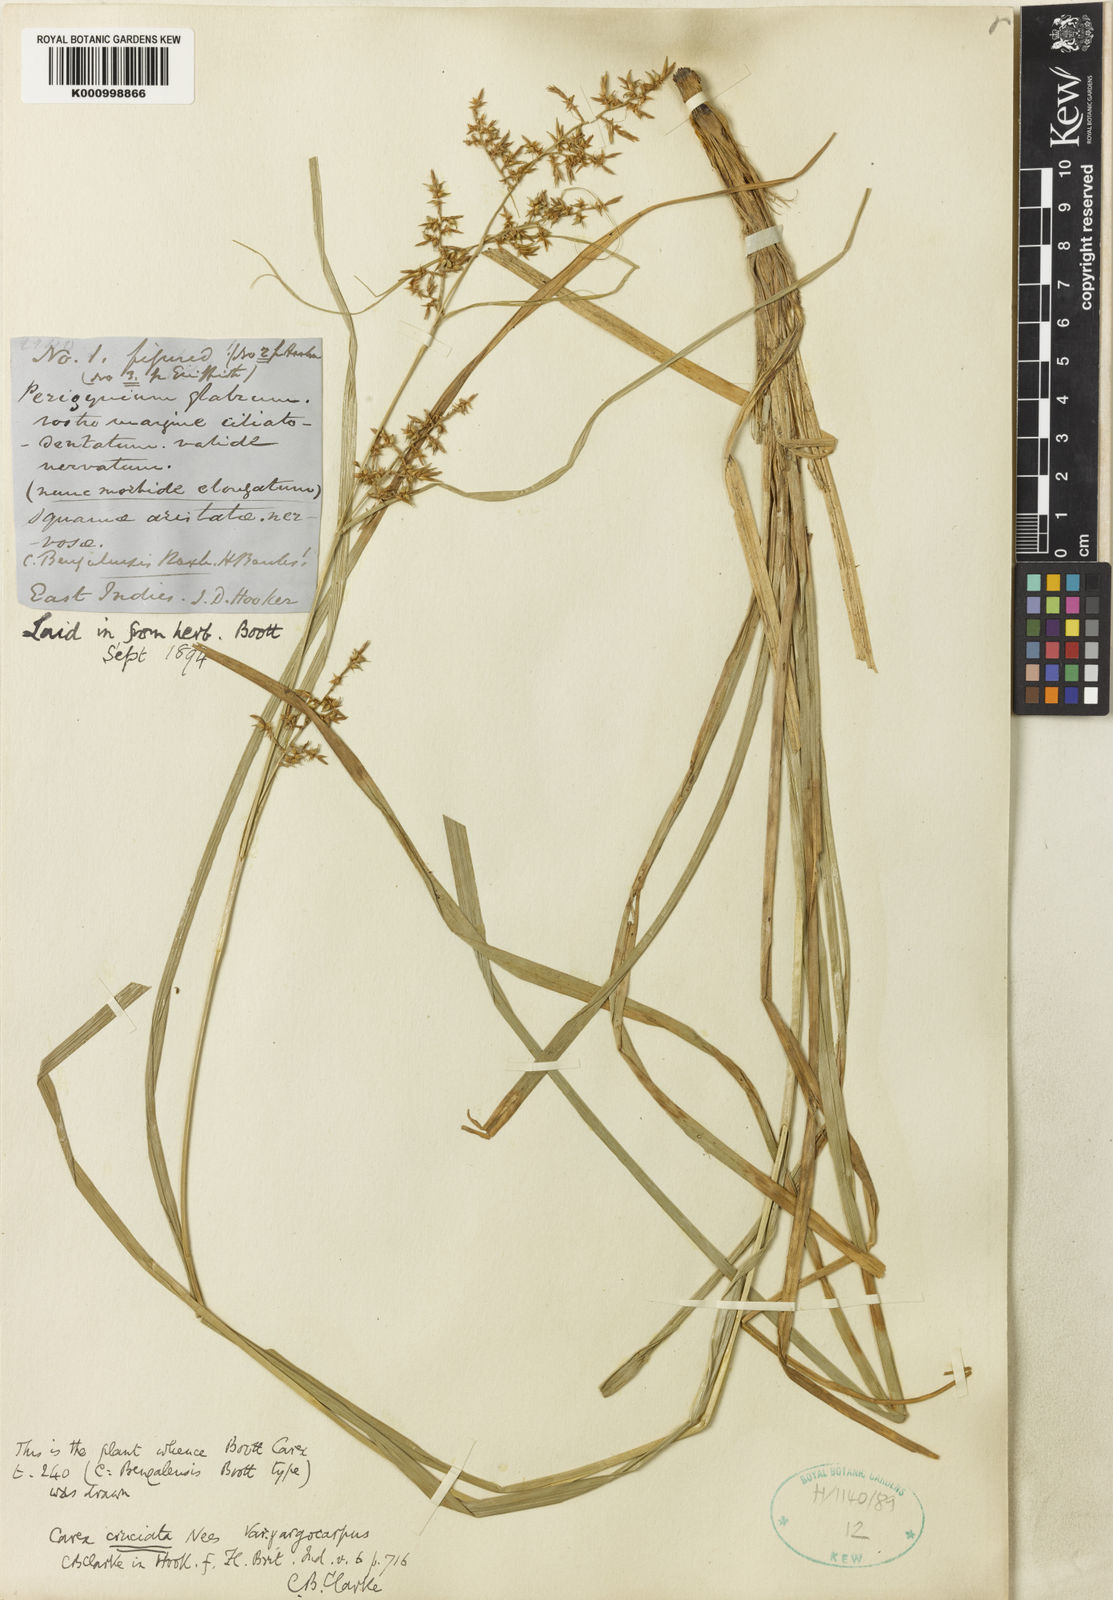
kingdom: Plantae
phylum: Tracheophyta
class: Liliopsida
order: Poales
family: Cyperaceae
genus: Carex
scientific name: Carex cruciata
